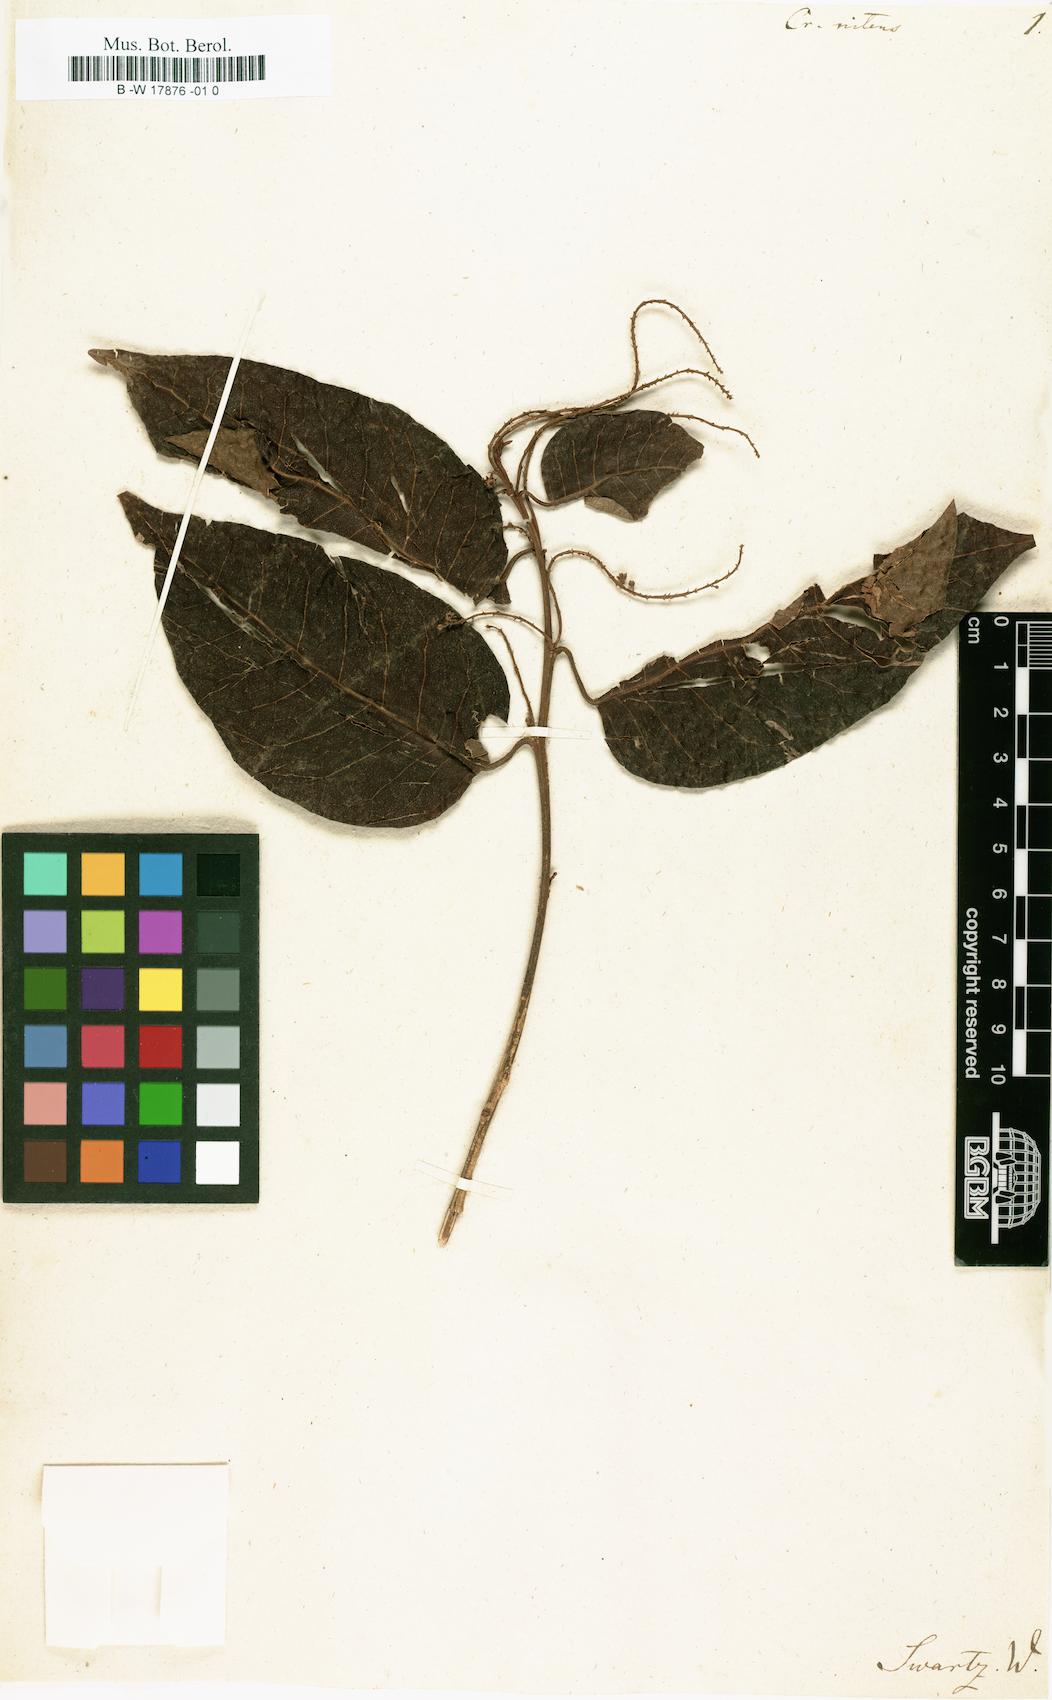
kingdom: Plantae
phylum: Tracheophyta
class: Magnoliopsida
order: Malpighiales
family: Euphorbiaceae
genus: Croton
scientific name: Croton nitens
